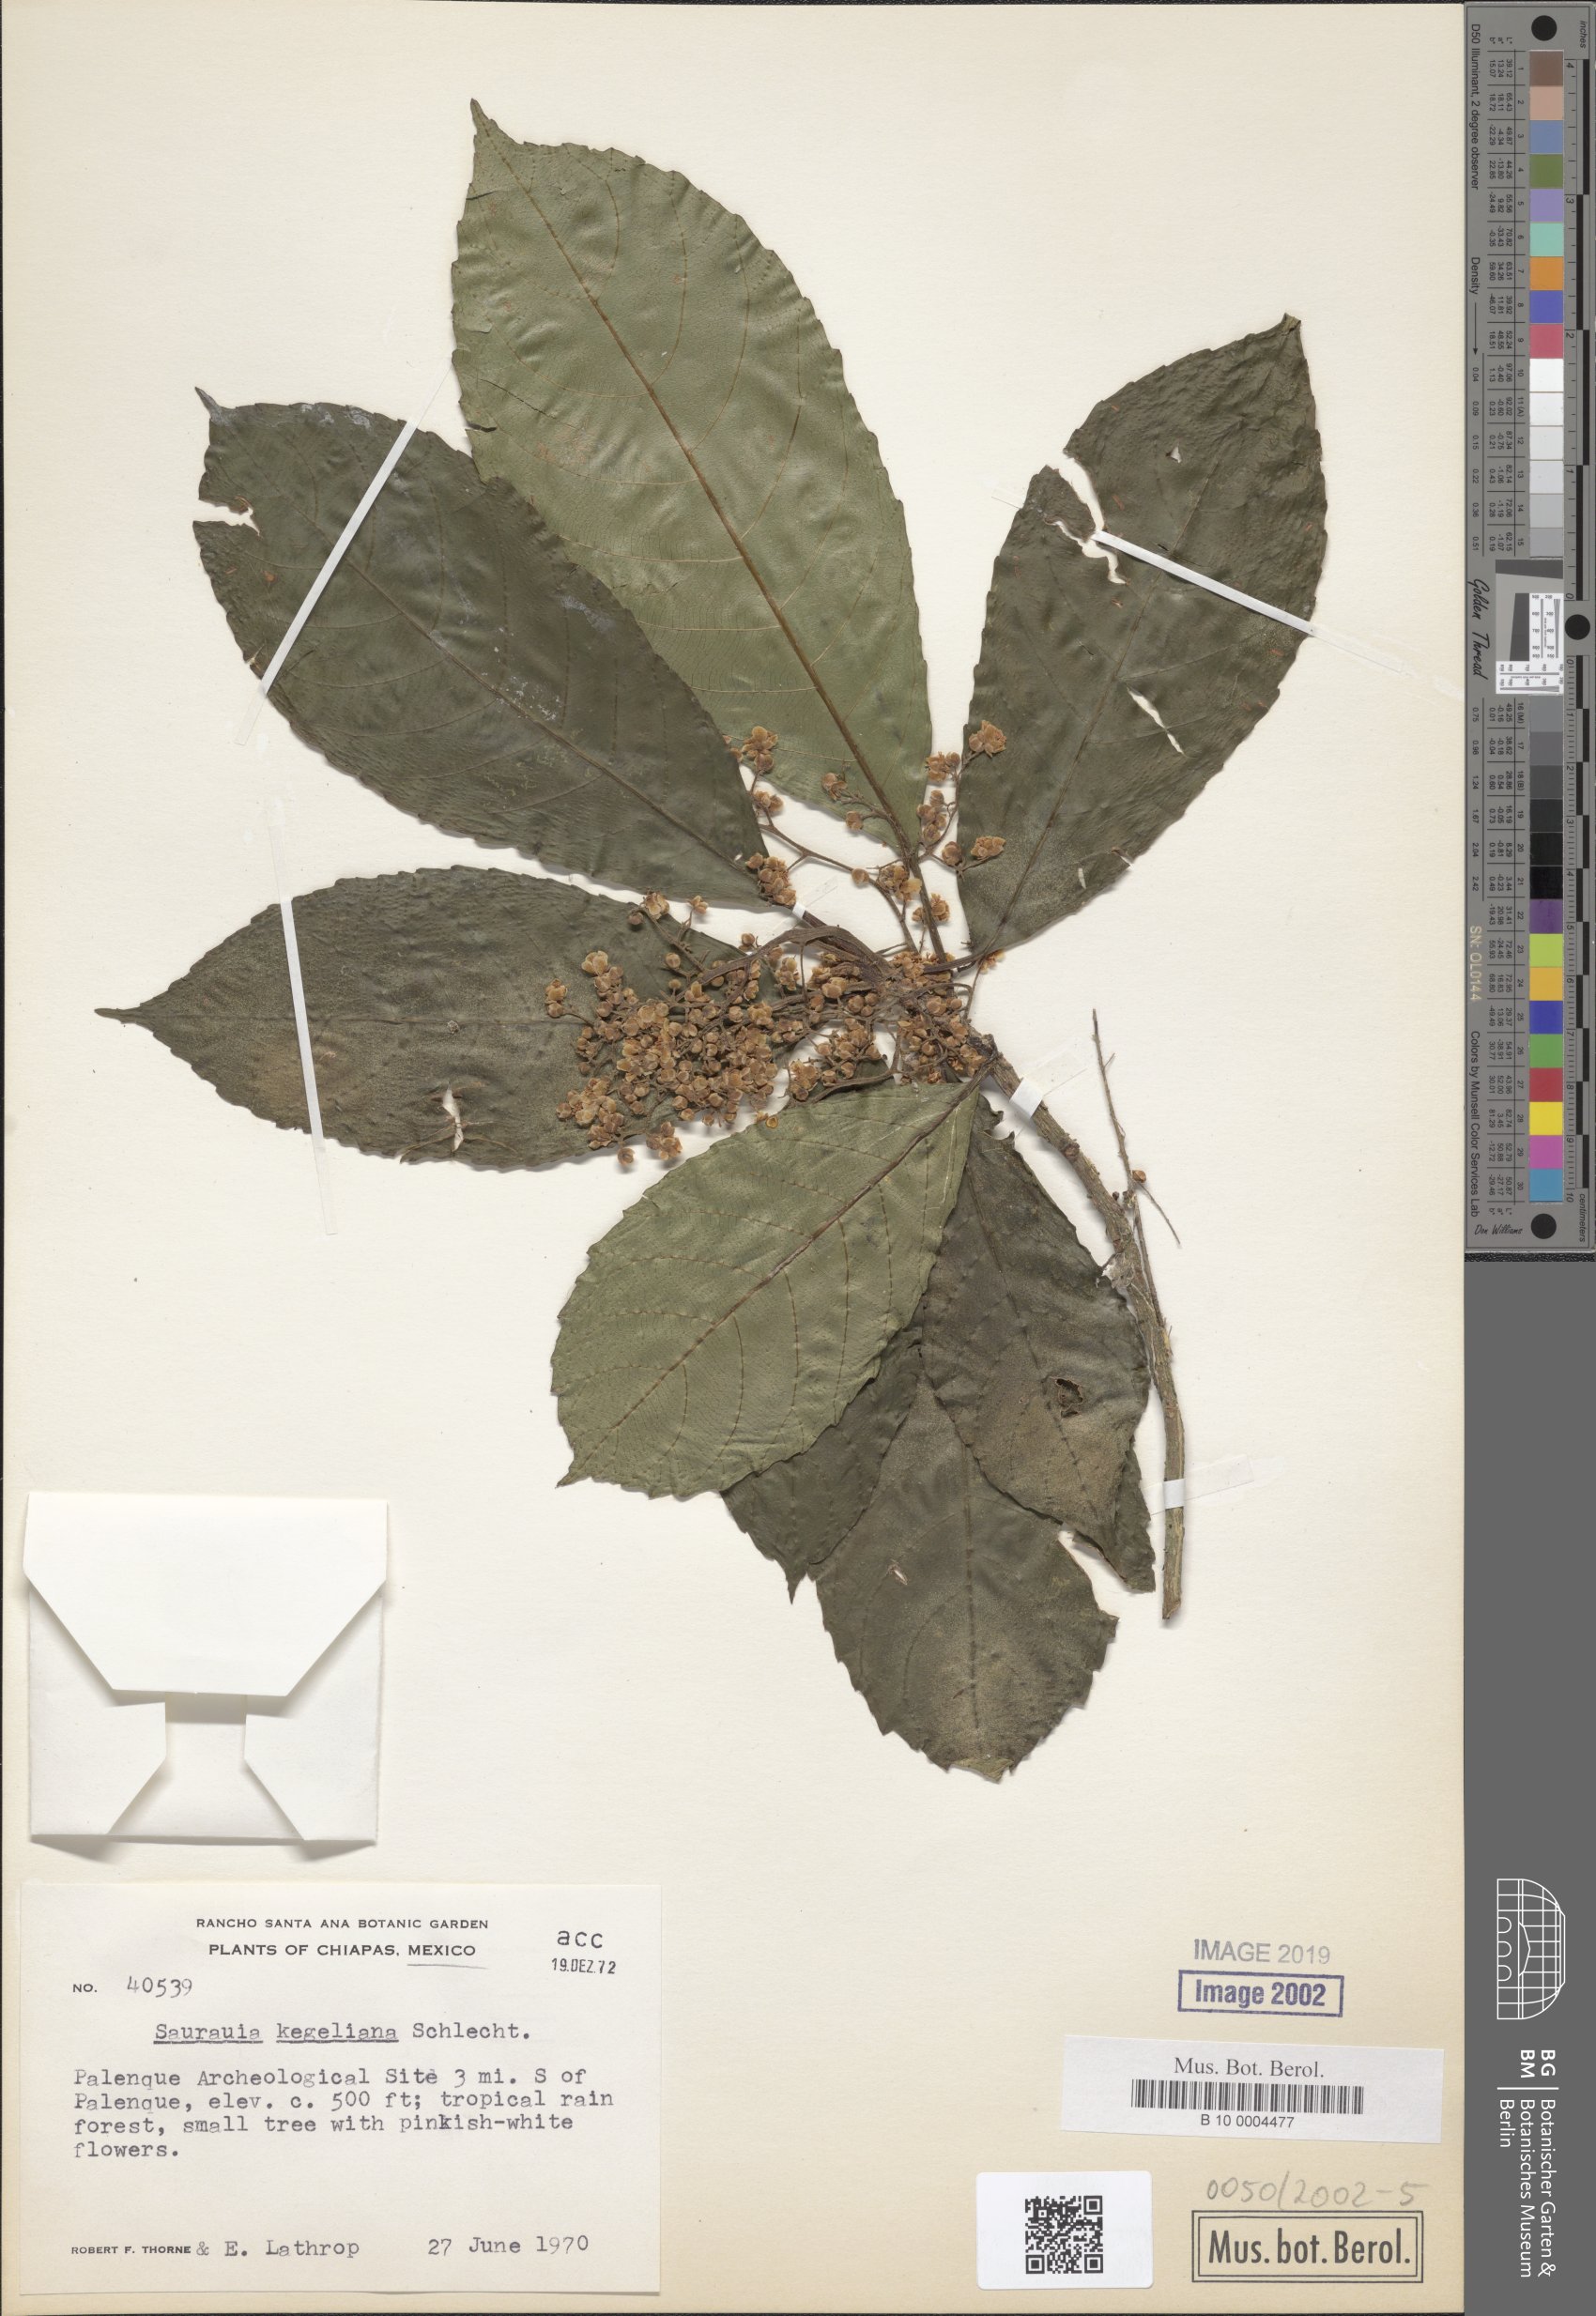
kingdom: Plantae
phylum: Tracheophyta
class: Magnoliopsida
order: Ericales
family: Actinidiaceae
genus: Saurauia
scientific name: Saurauia kegeliana
